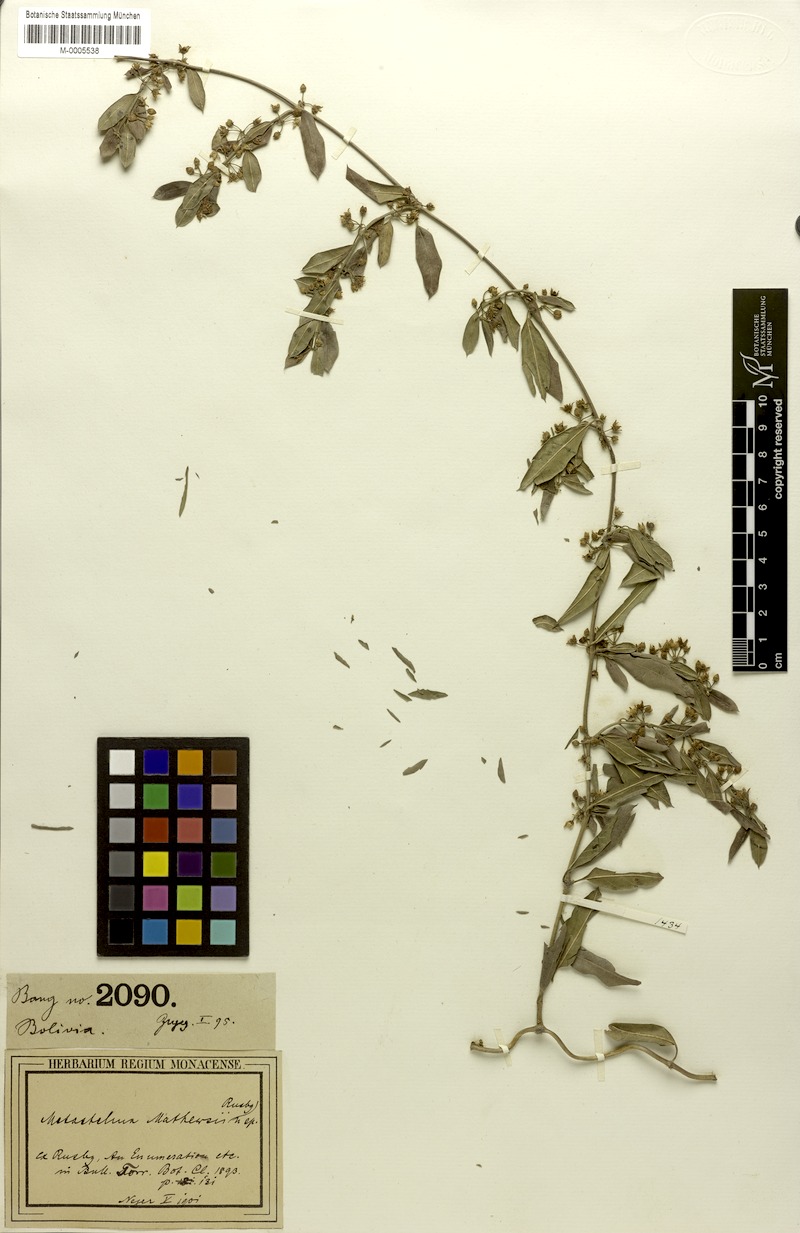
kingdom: Plantae
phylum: Tracheophyta
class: Magnoliopsida
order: Gentianales
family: Apocynaceae
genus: Metastelma
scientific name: Metastelma mathewsii
